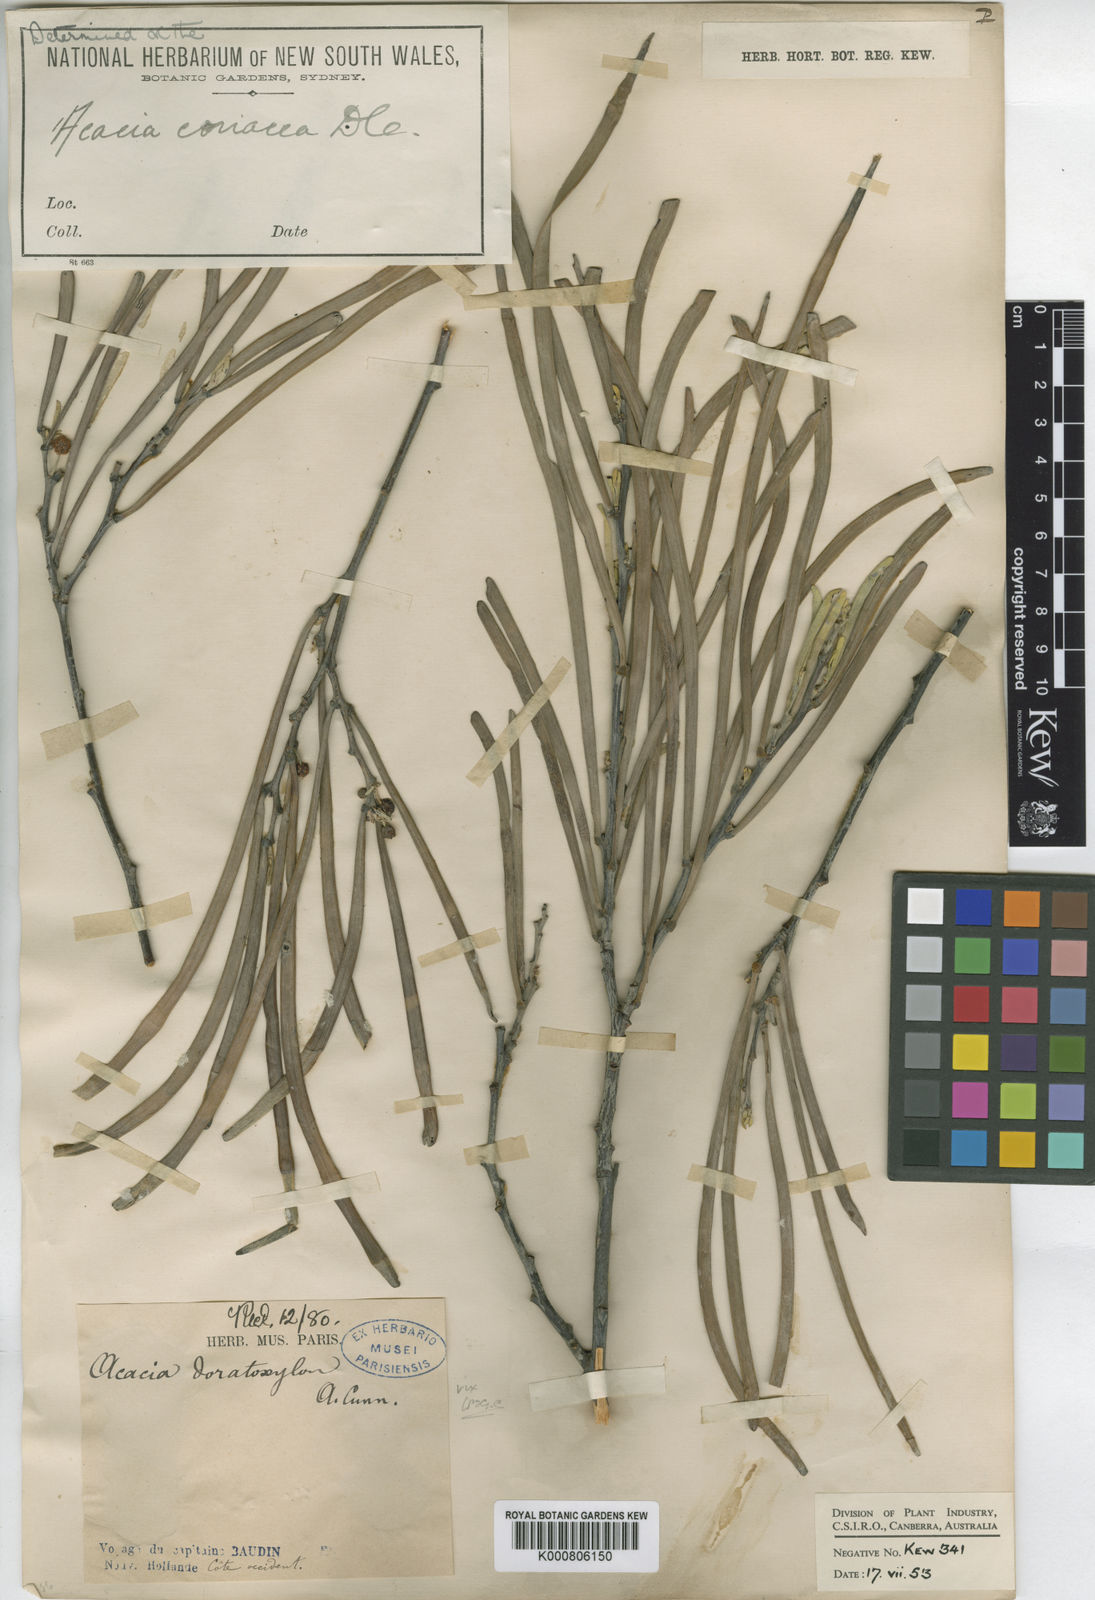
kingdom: Plantae
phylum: Tracheophyta
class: Magnoliopsida
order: Fabales
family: Fabaceae
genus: Acacia
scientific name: Acacia coriacea
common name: Desert-oak
